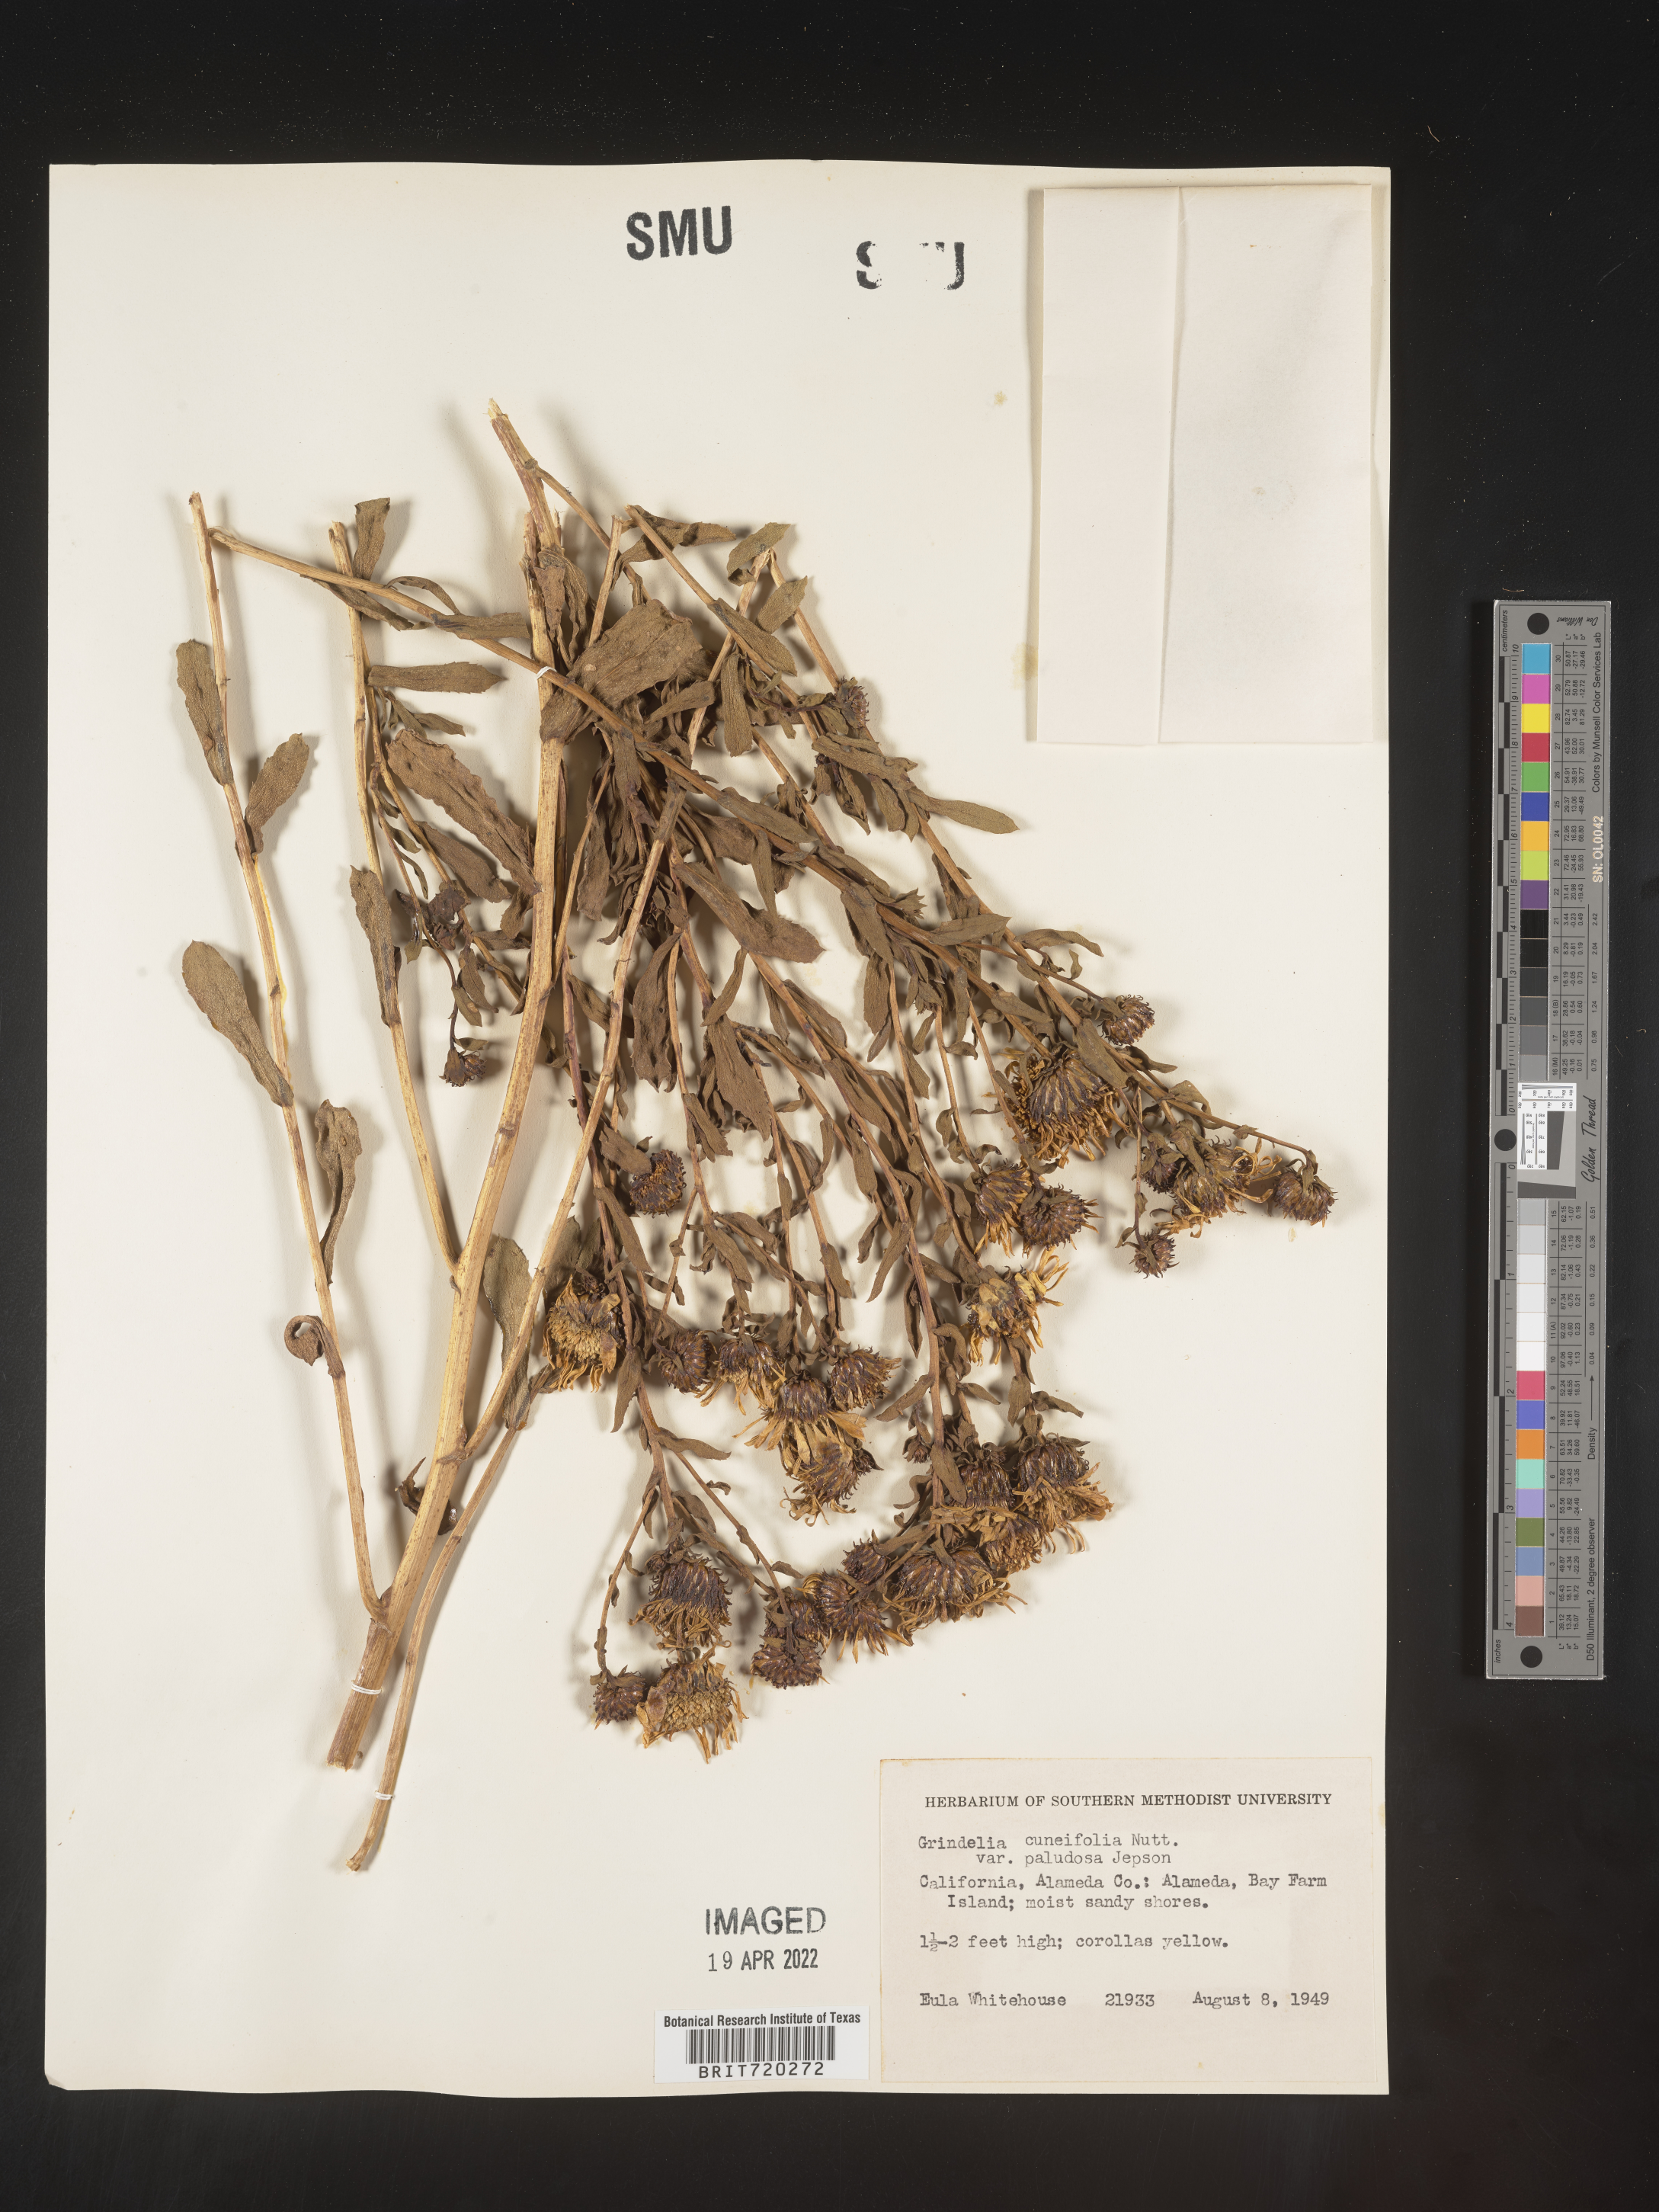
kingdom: Plantae
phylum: Tracheophyta
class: Magnoliopsida
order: Asterales
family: Asteraceae
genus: Grindelia
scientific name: Grindelia
